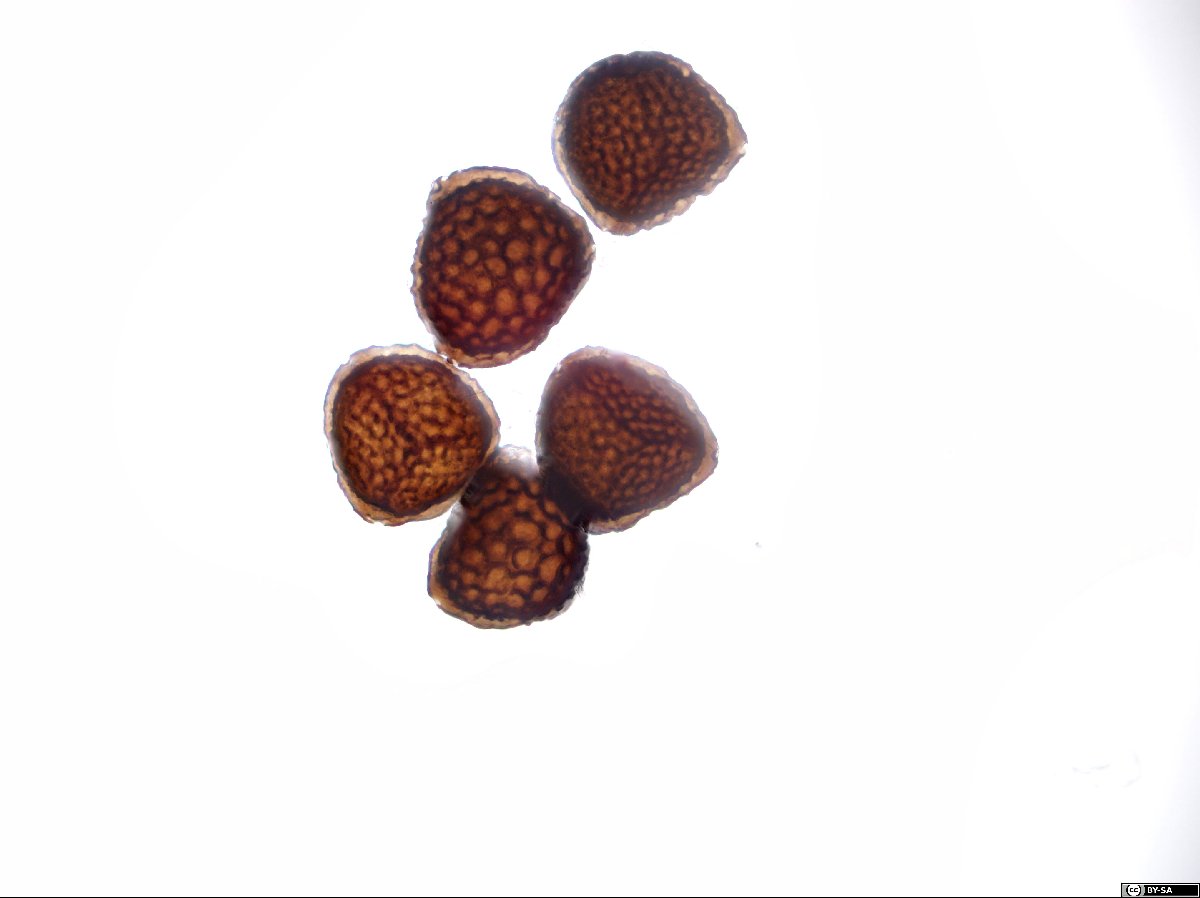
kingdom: Plantae
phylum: Marchantiophyta
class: Marchantiopsida
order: Marchantiales
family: Ricciaceae
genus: Riccia
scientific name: Riccia warnstorfii
